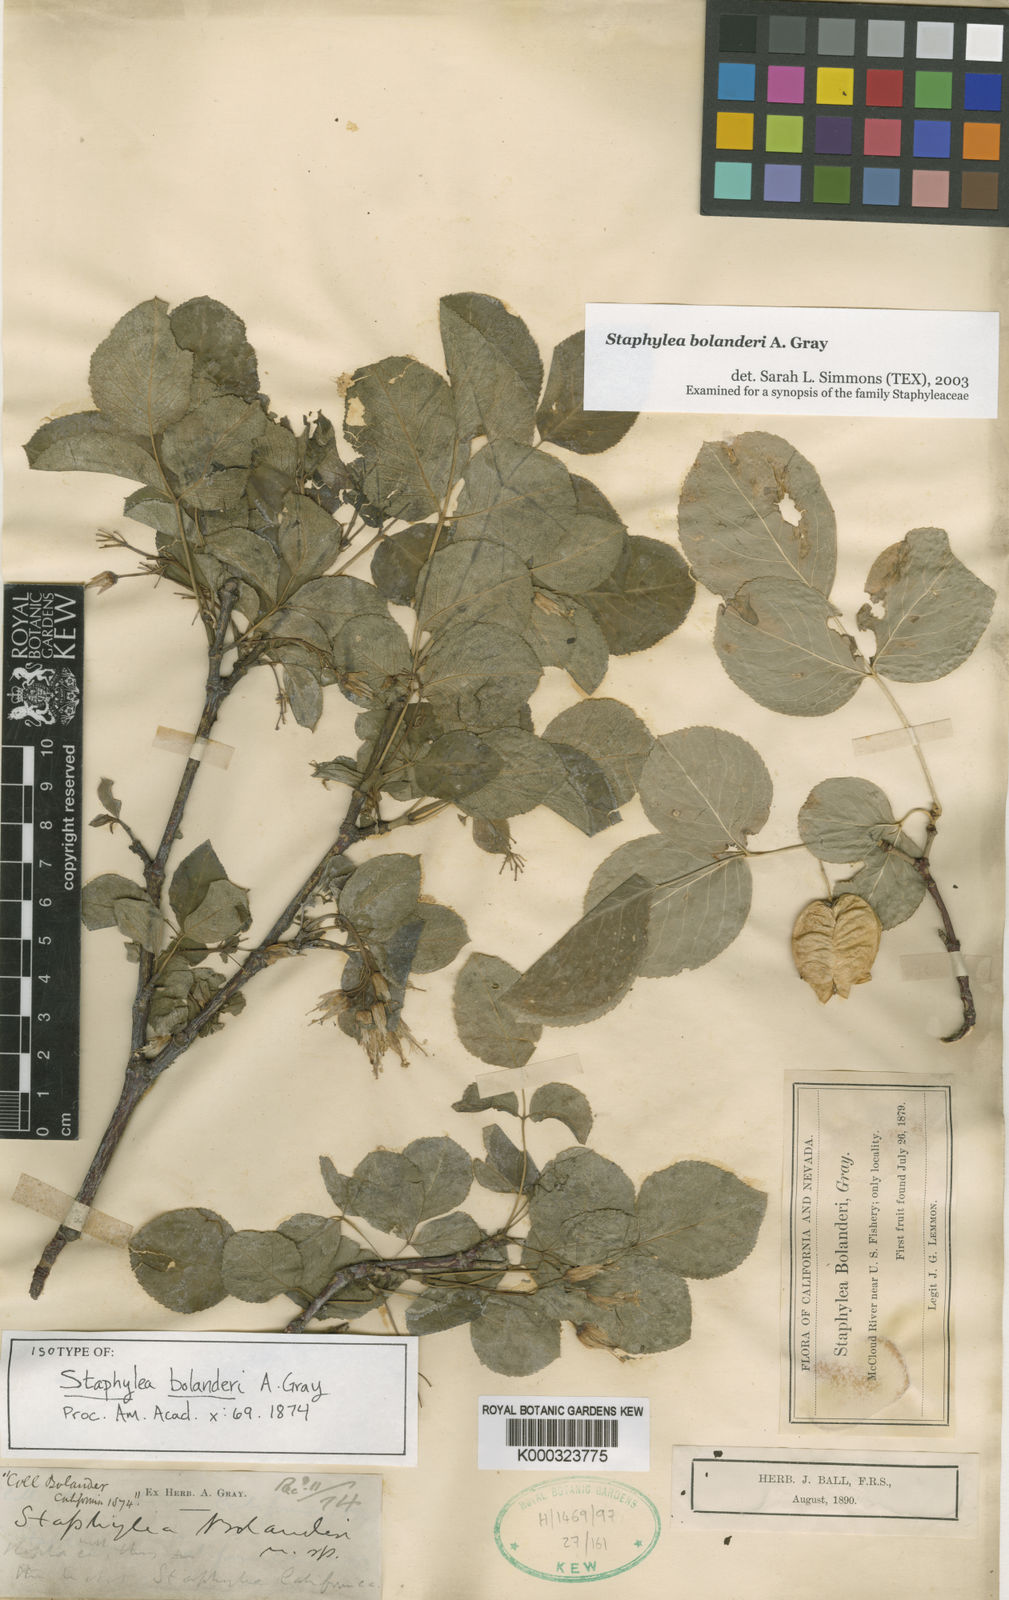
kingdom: Plantae
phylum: Tracheophyta
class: Magnoliopsida
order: Crossosomatales
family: Staphyleaceae
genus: Staphylea
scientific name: Staphylea bolanderi
